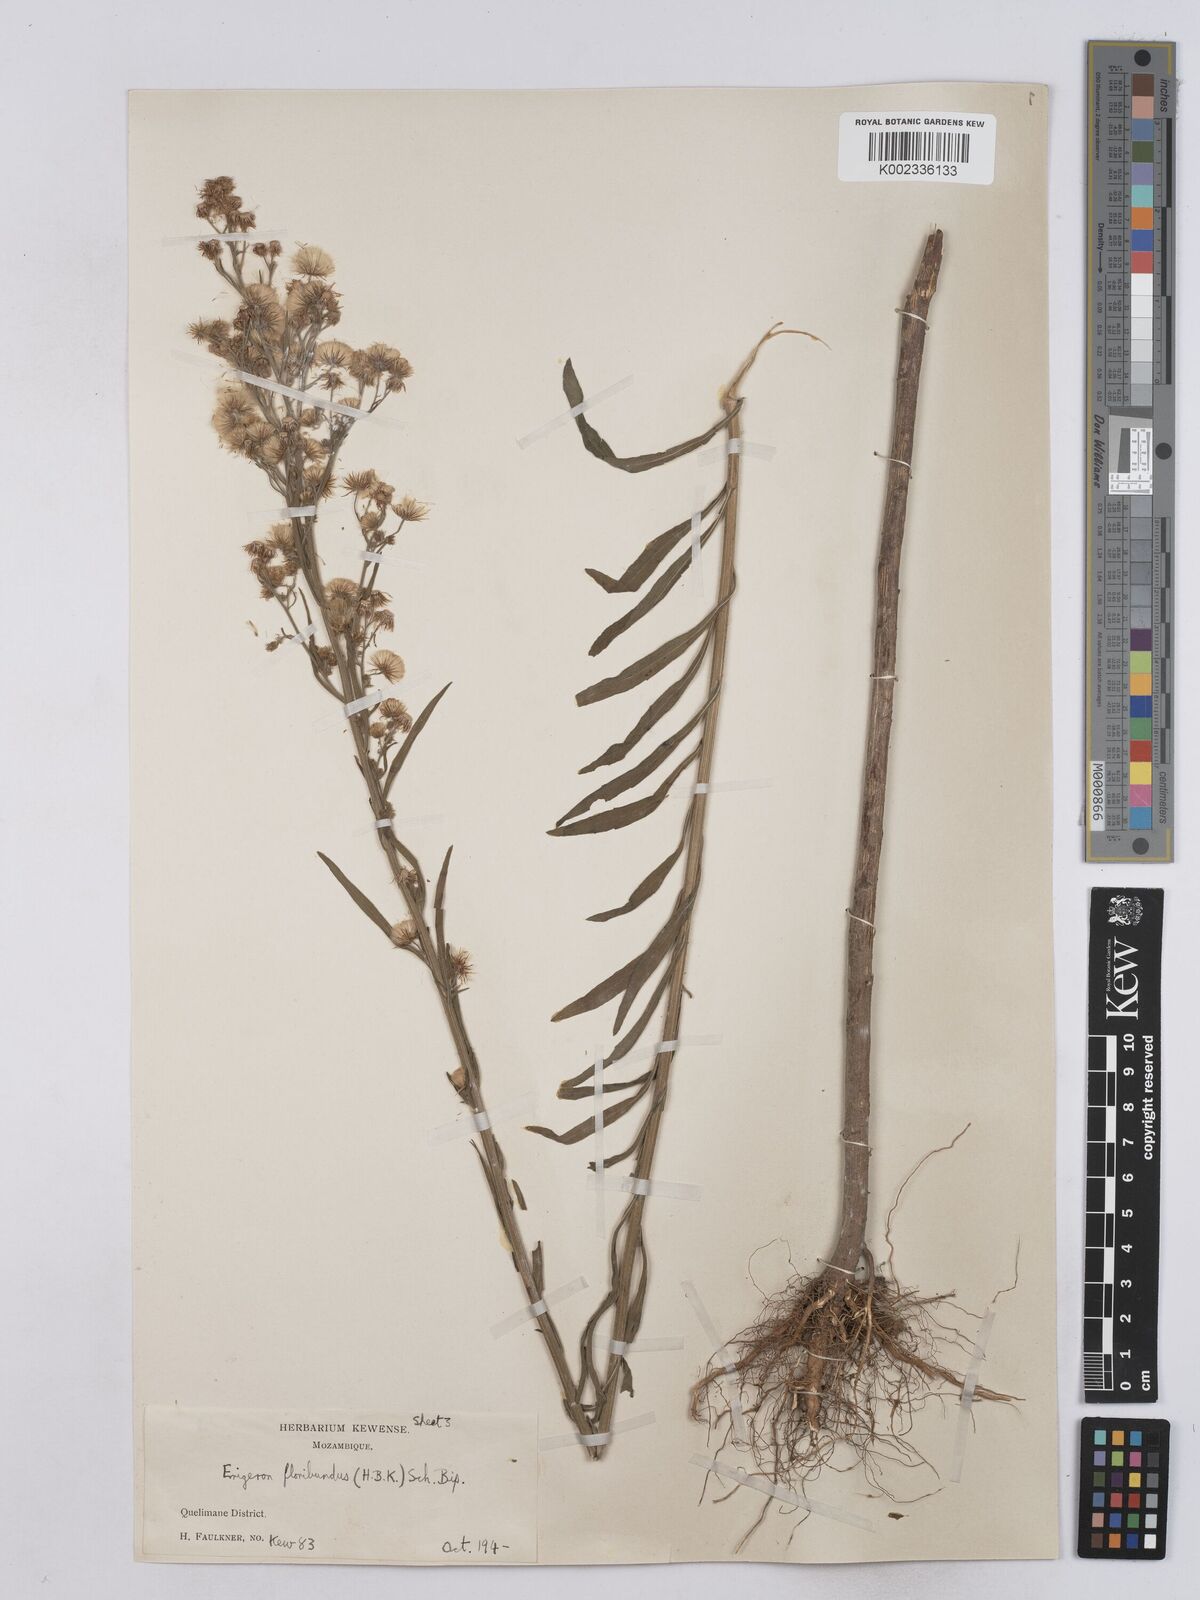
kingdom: Plantae
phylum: Tracheophyta
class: Magnoliopsida
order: Asterales
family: Asteraceae
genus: Erigeron
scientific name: Erigeron floribundus
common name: Bilbao fleabane
